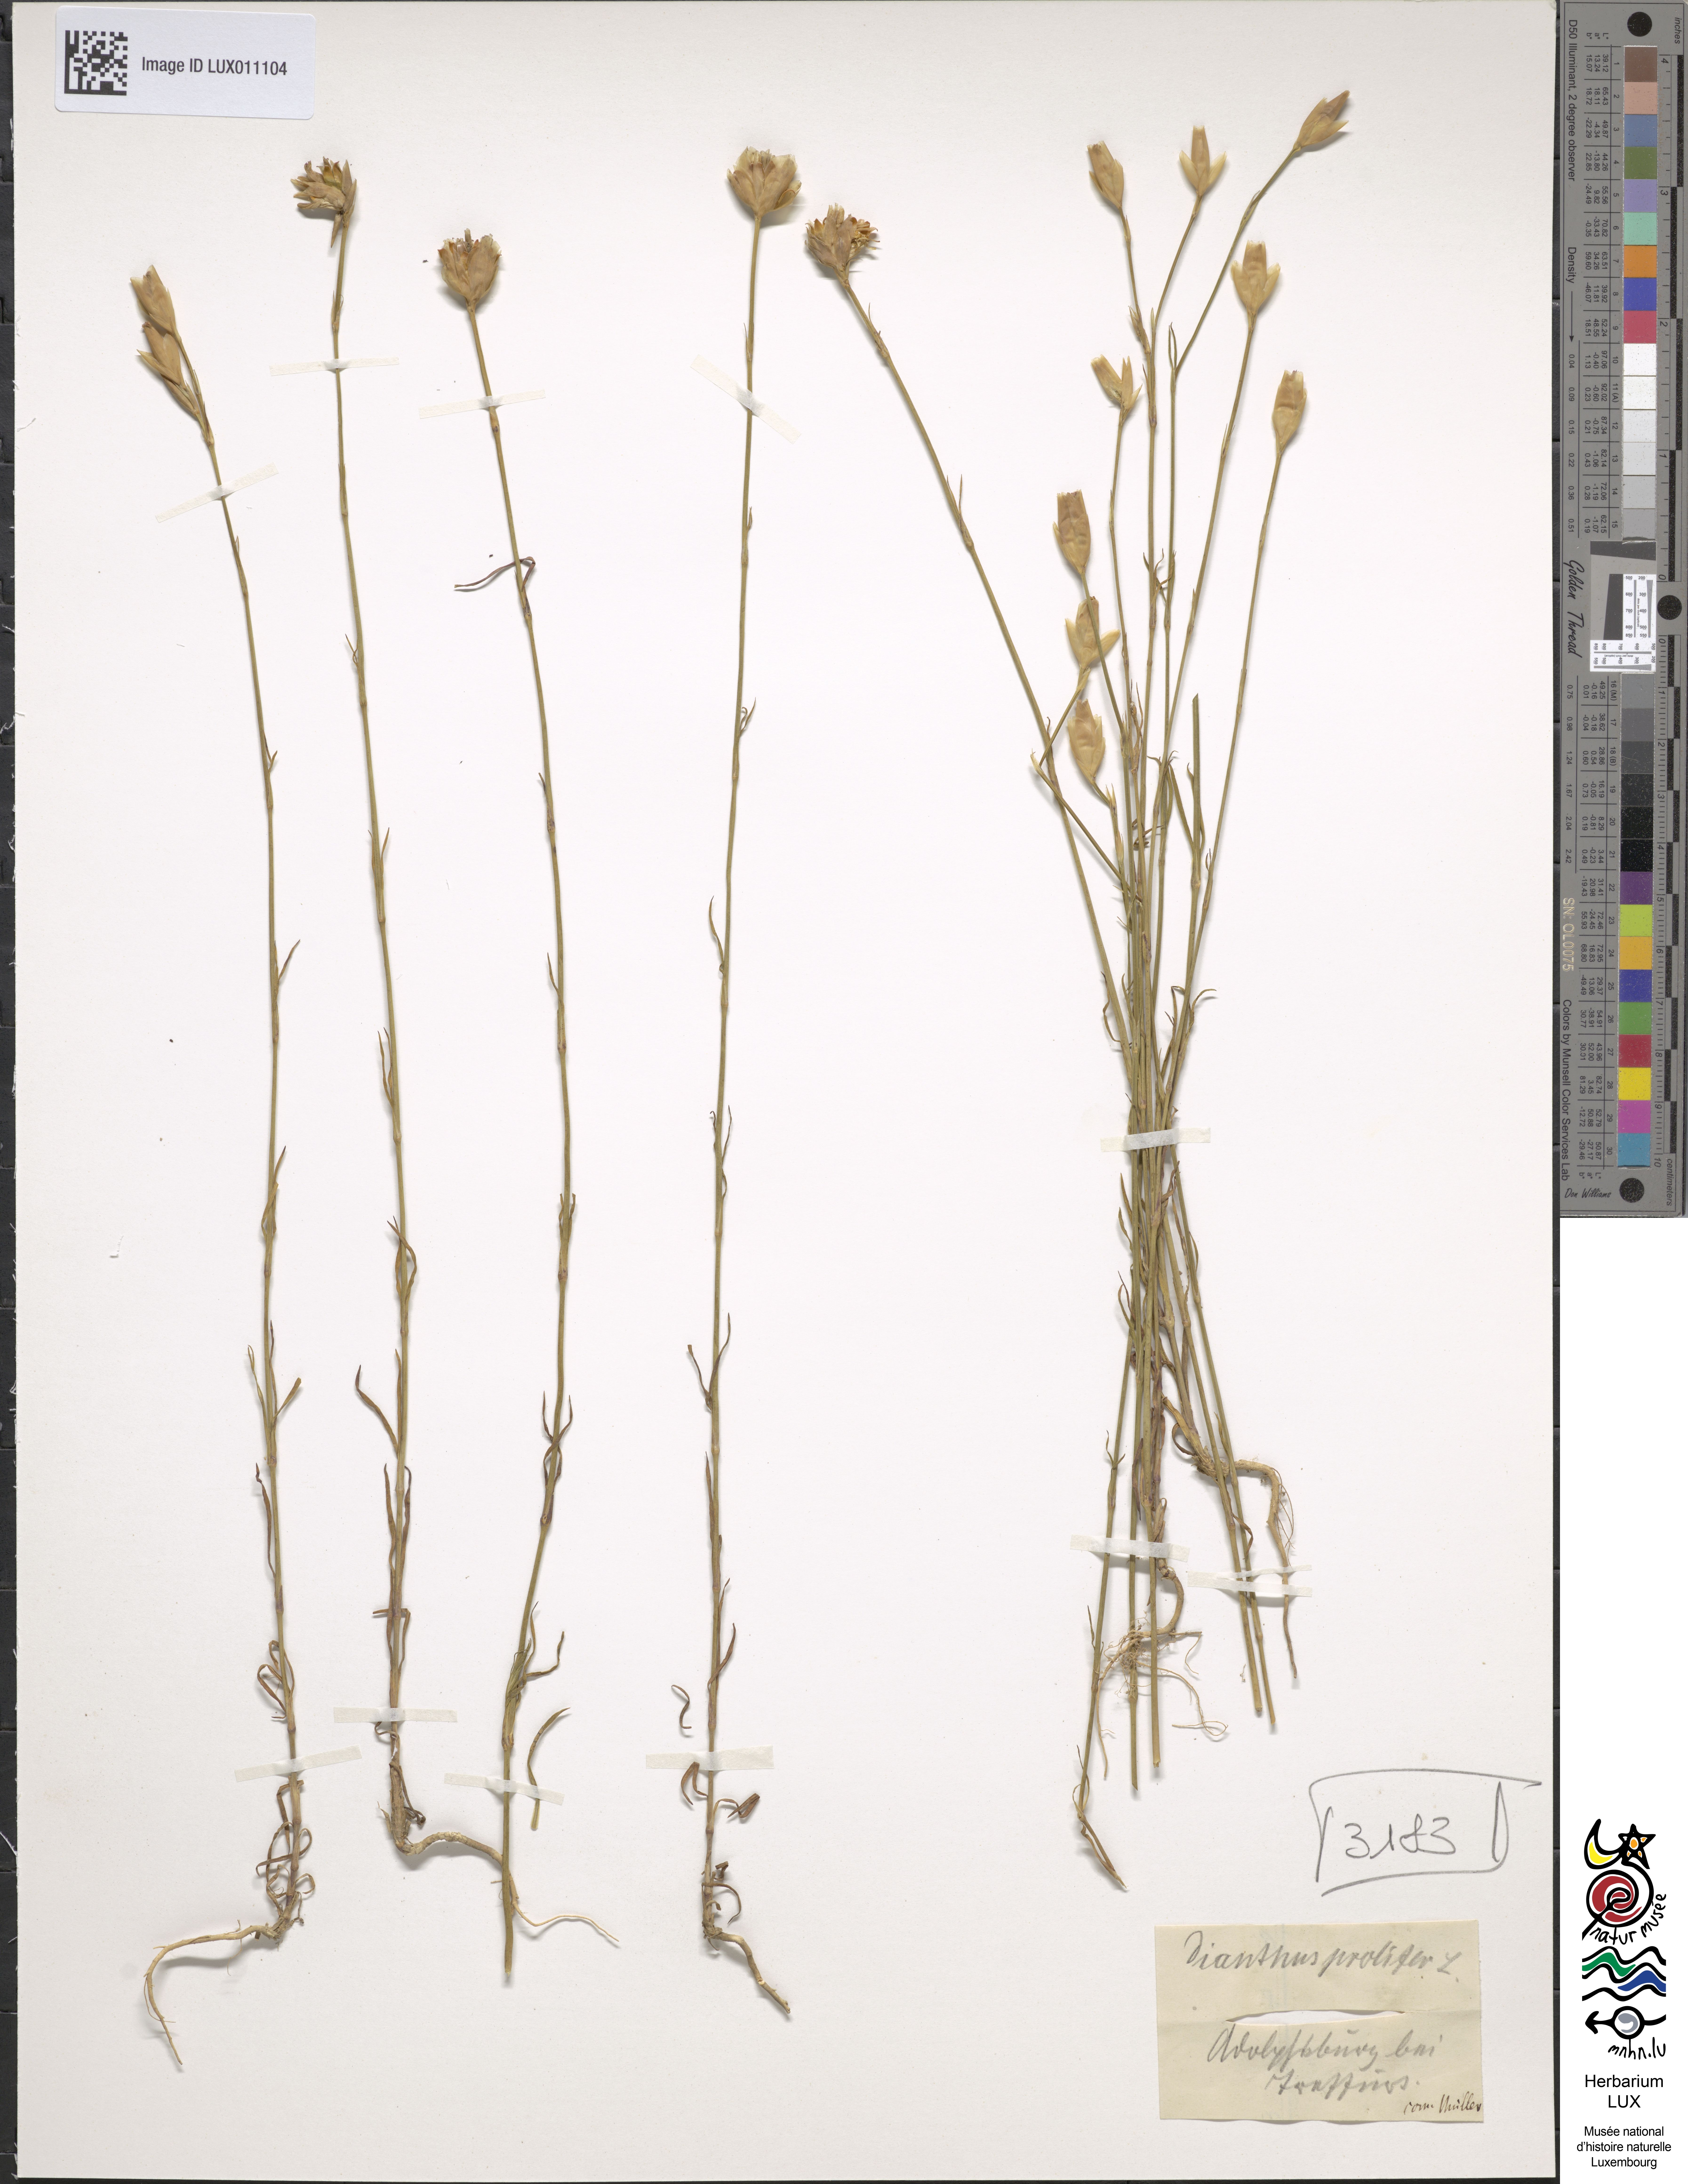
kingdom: Plantae
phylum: Tracheophyta
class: Magnoliopsida
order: Caryophyllales
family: Caryophyllaceae
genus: Petrorhagia
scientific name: Petrorhagia prolifera
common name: Proliferous pink
